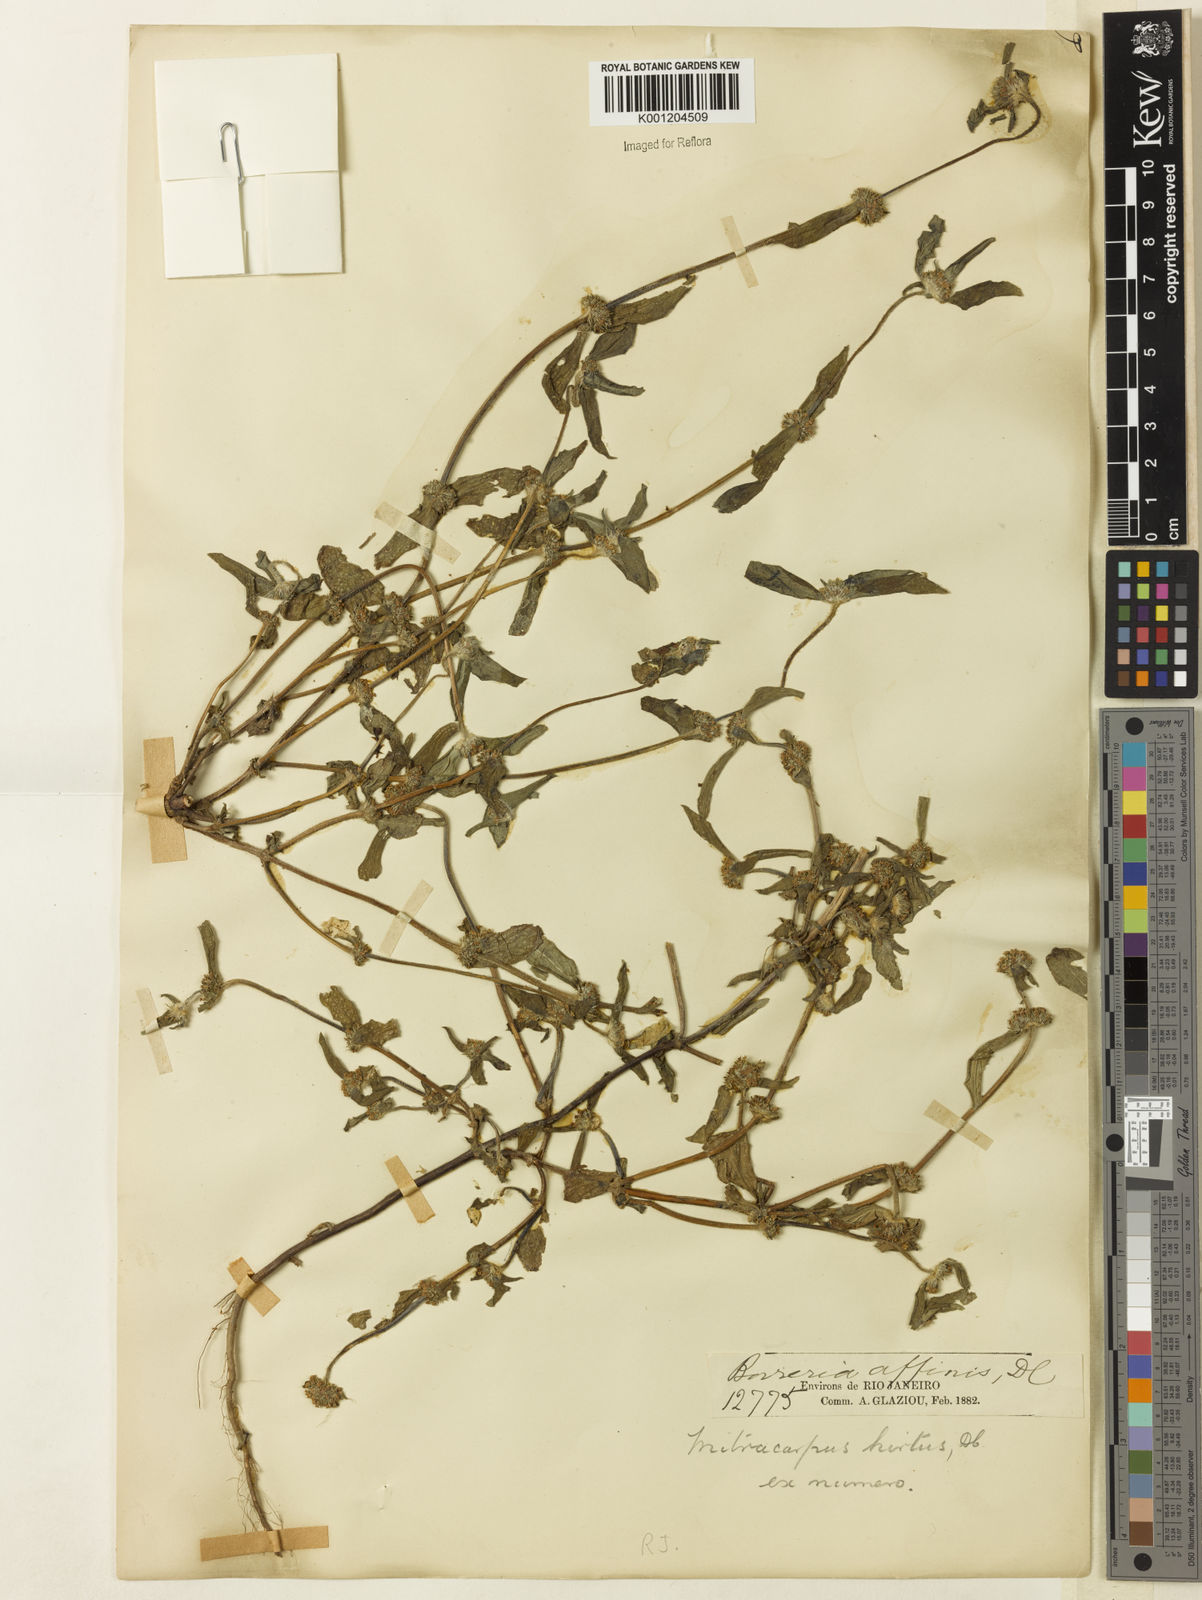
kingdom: Plantae
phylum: Tracheophyta
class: Magnoliopsida
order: Gentianales
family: Rubiaceae
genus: Mitracarpus
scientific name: Mitracarpus hirtus
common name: Tropical girdlepod
